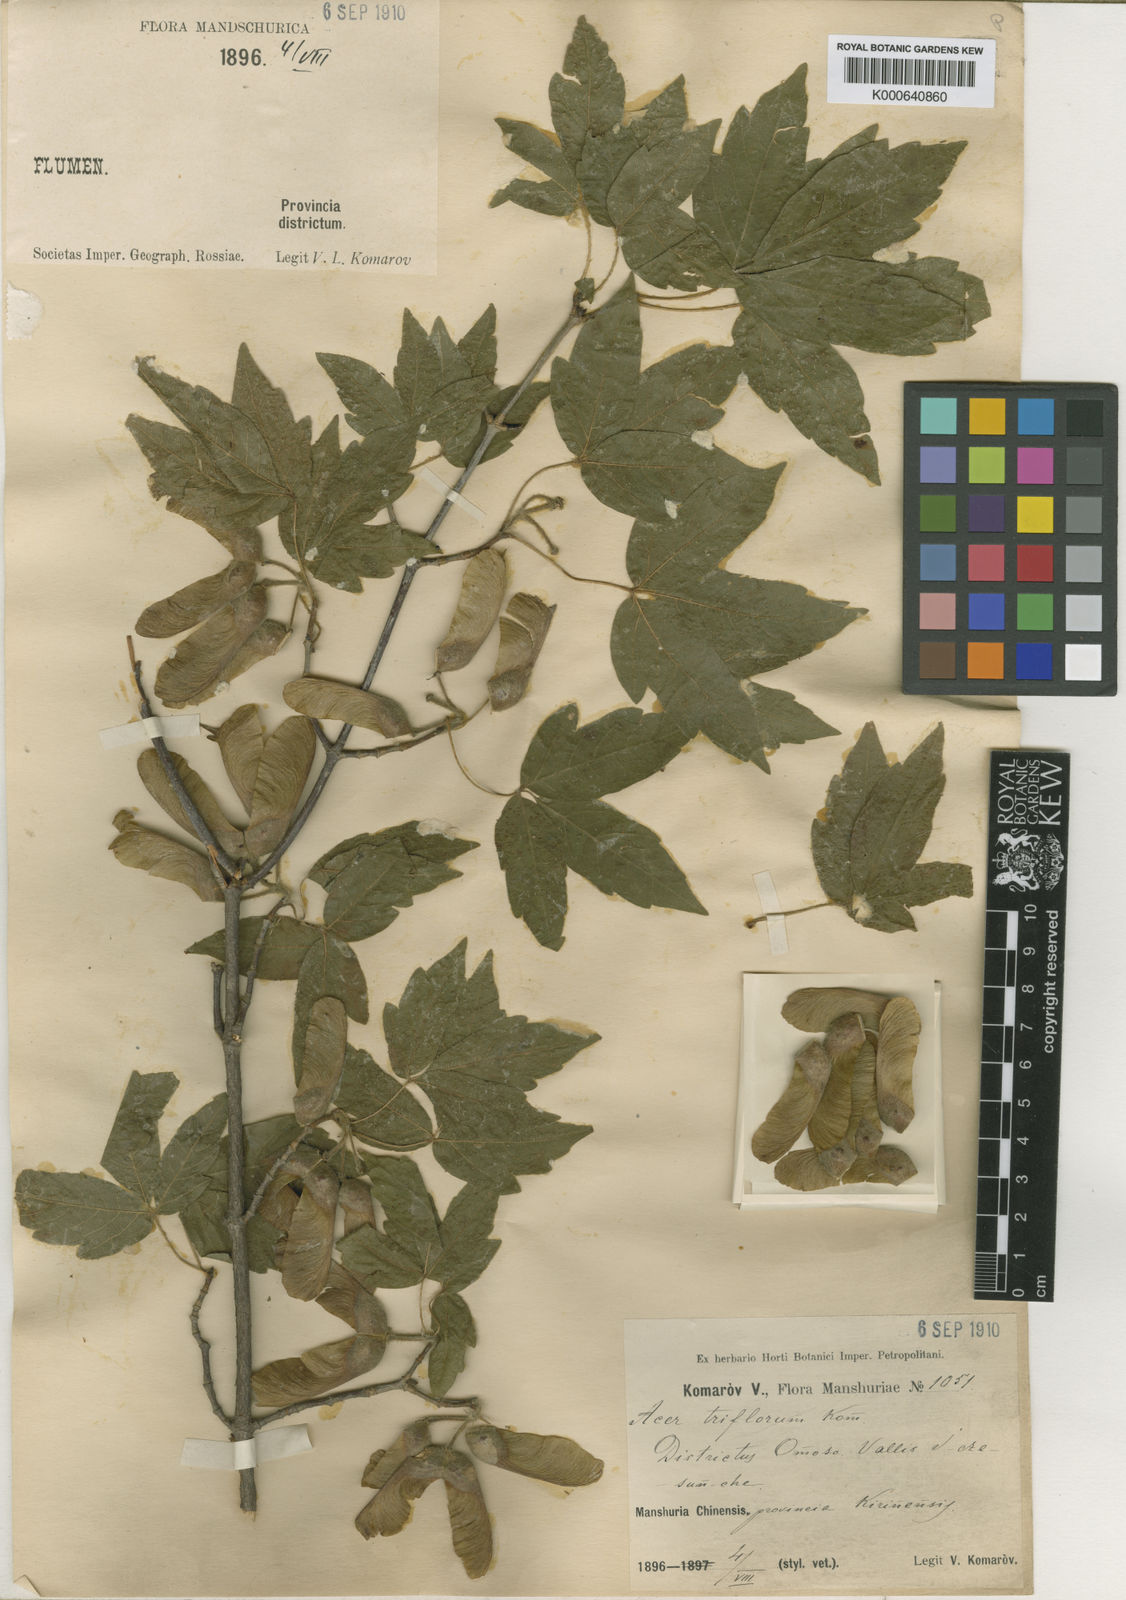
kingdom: Plantae
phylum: Tracheophyta
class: Magnoliopsida
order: Sapindales
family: Sapindaceae
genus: Acer
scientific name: Acer triflorum
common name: Three-flower maple
